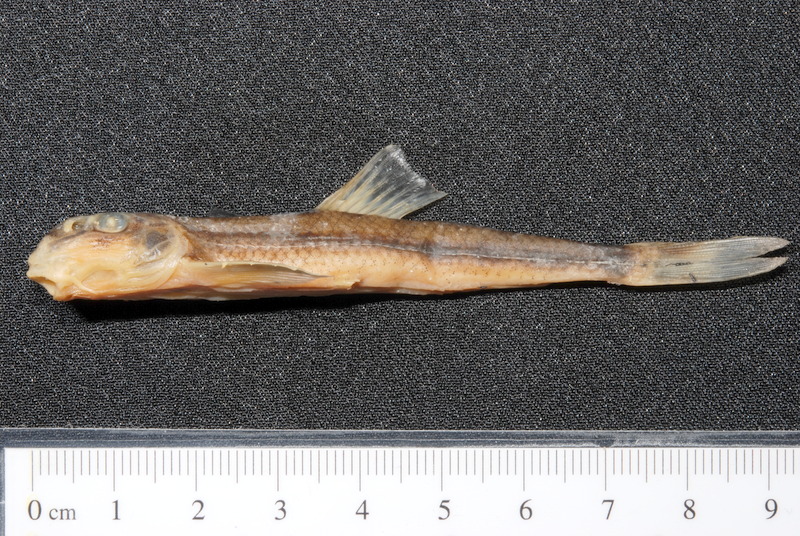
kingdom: Animalia
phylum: Chordata
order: Cypriniformes
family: Cyprinidae
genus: Romanogobio
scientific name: Romanogobio uranoscopus
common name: Danube gudgeon
